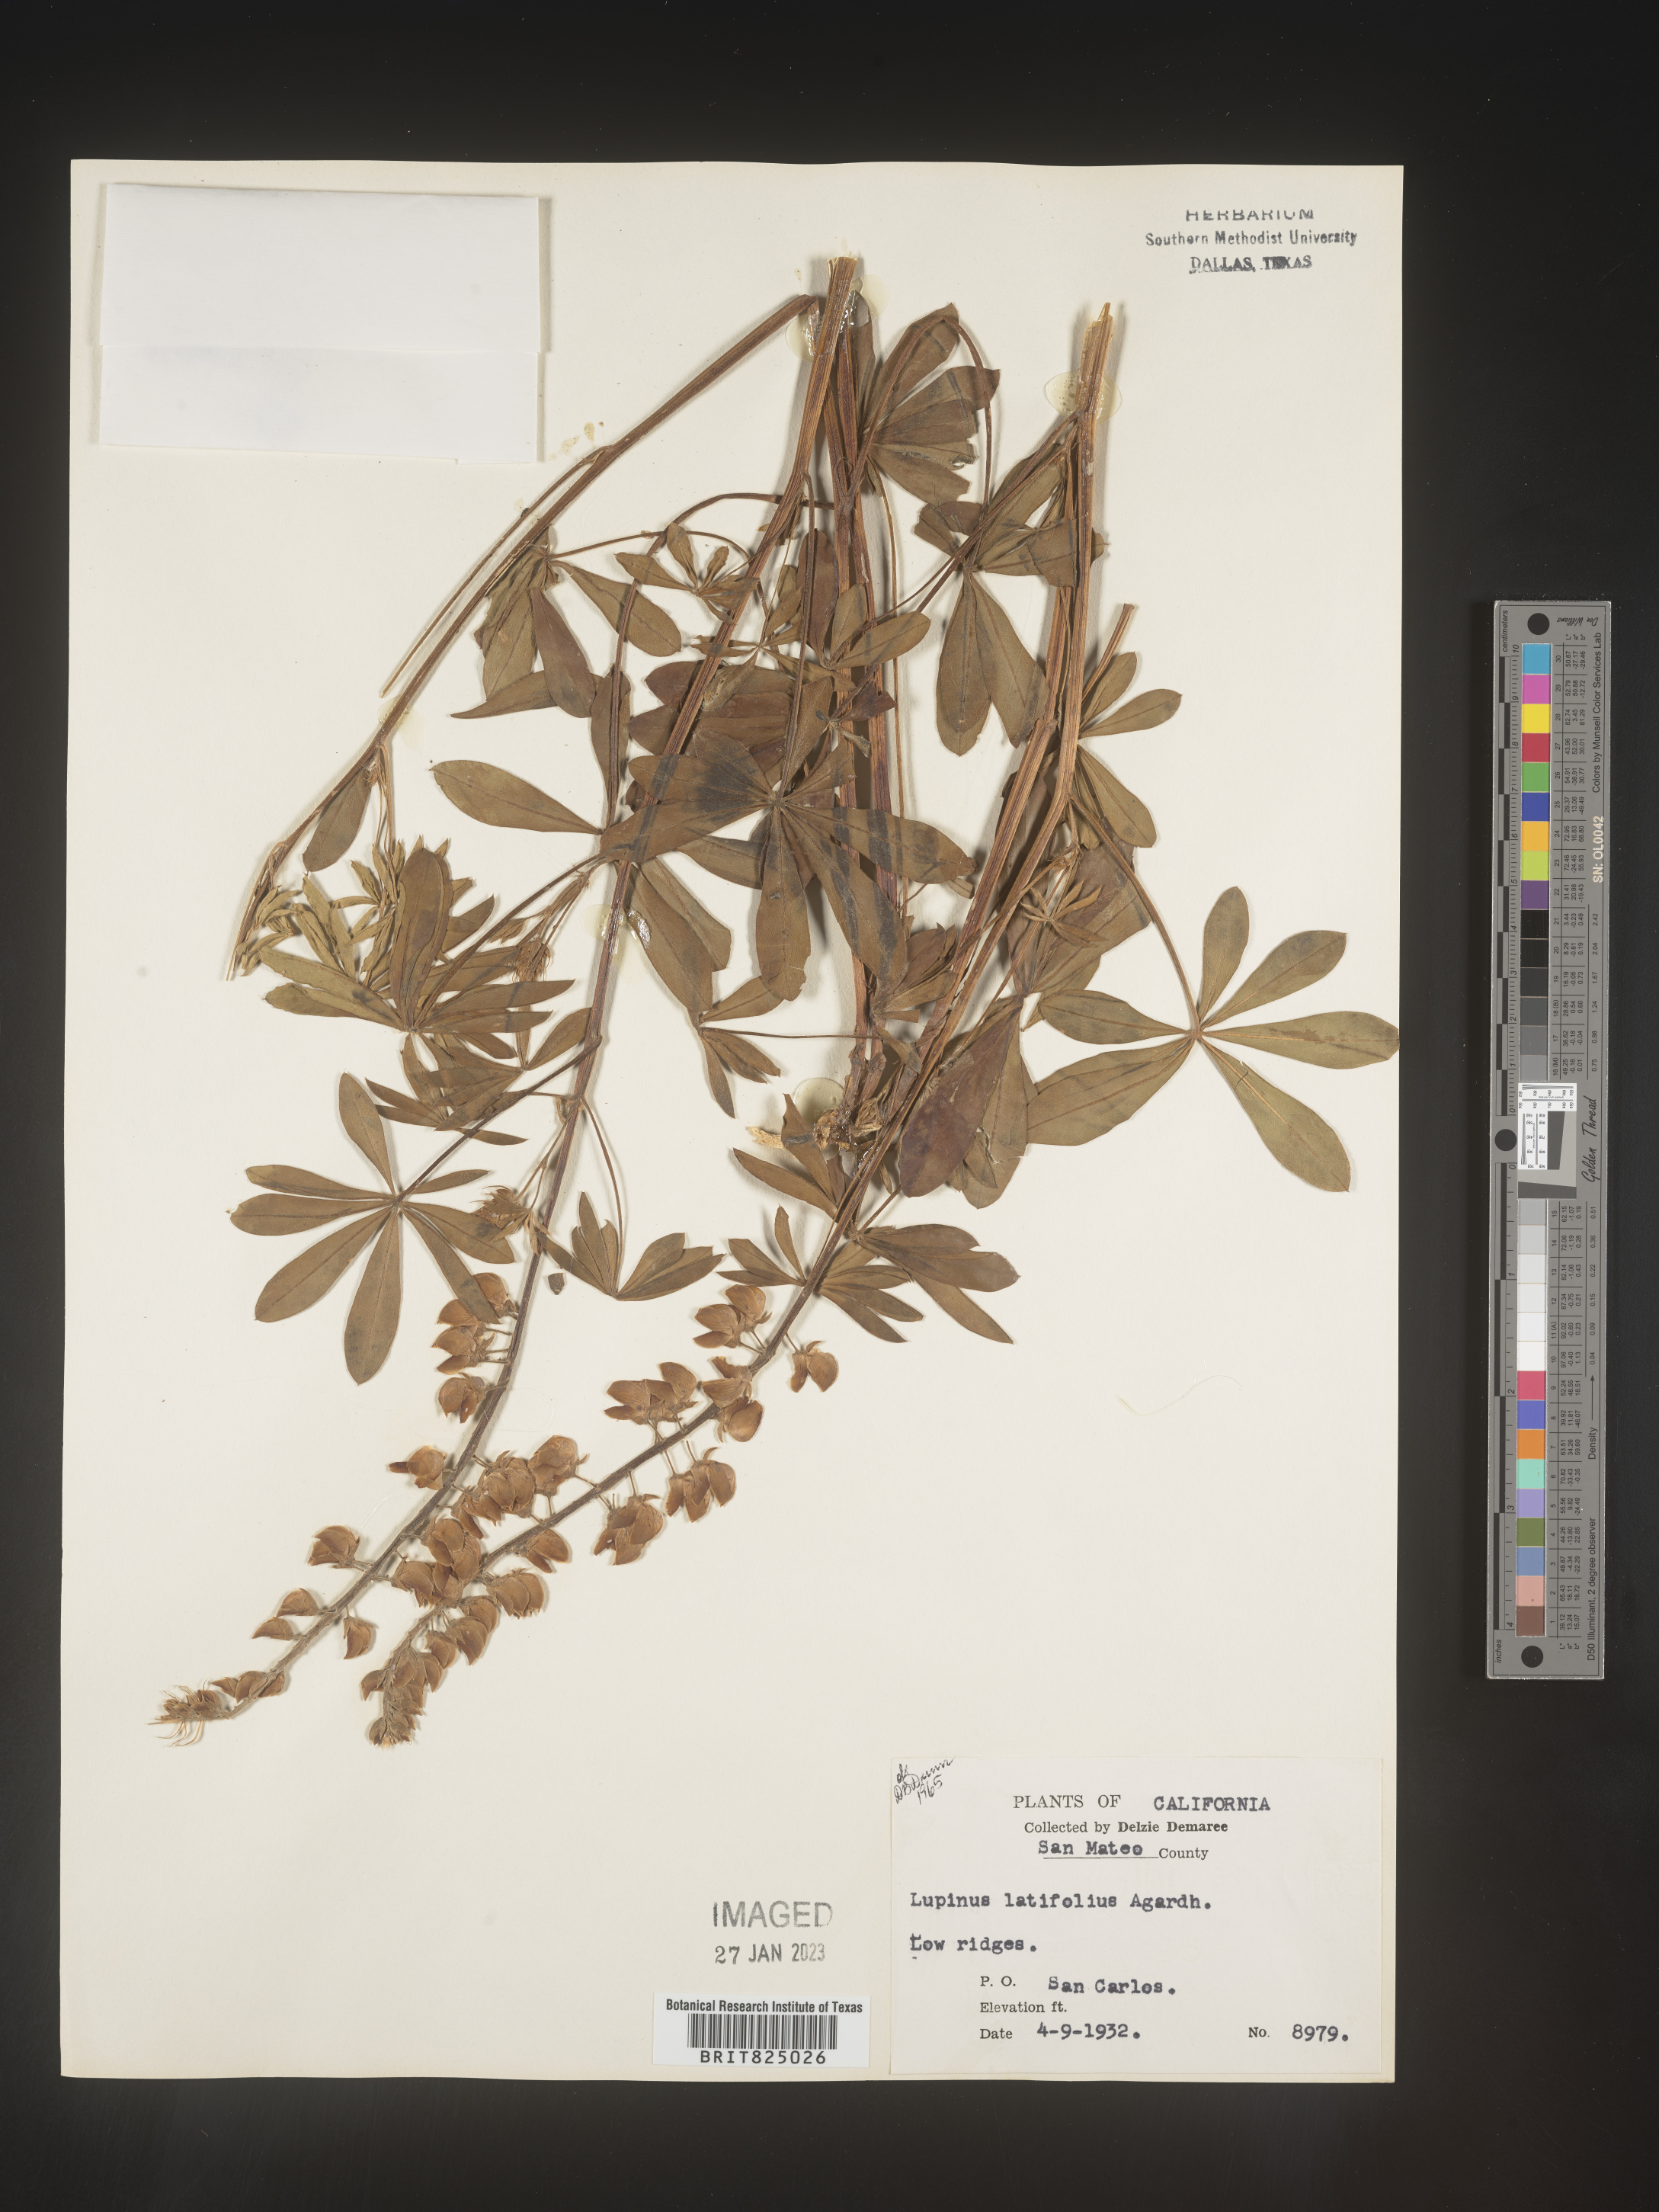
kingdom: Plantae
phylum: Tracheophyta
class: Magnoliopsida
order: Fabales
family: Fabaceae
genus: Lupinus
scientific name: Lupinus
